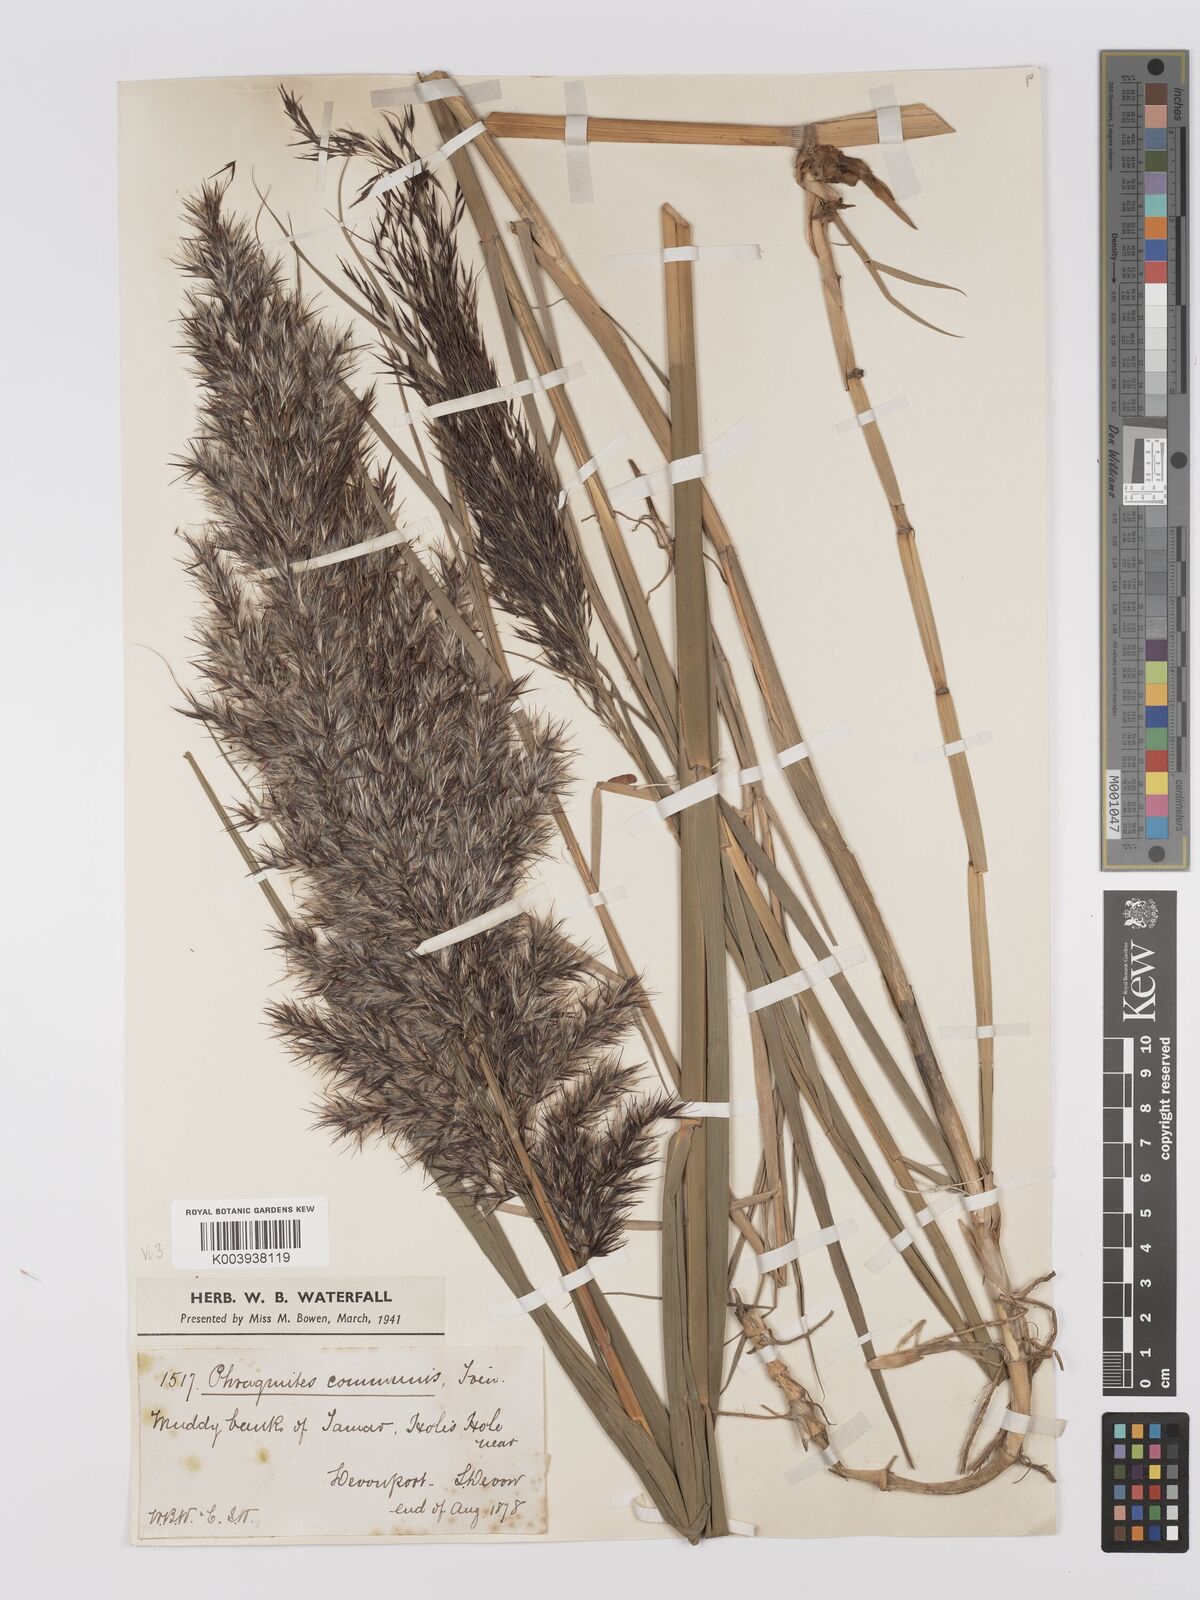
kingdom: Plantae
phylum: Tracheophyta
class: Liliopsida
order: Poales
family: Poaceae
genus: Phragmites
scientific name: Phragmites australis
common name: Common reed
